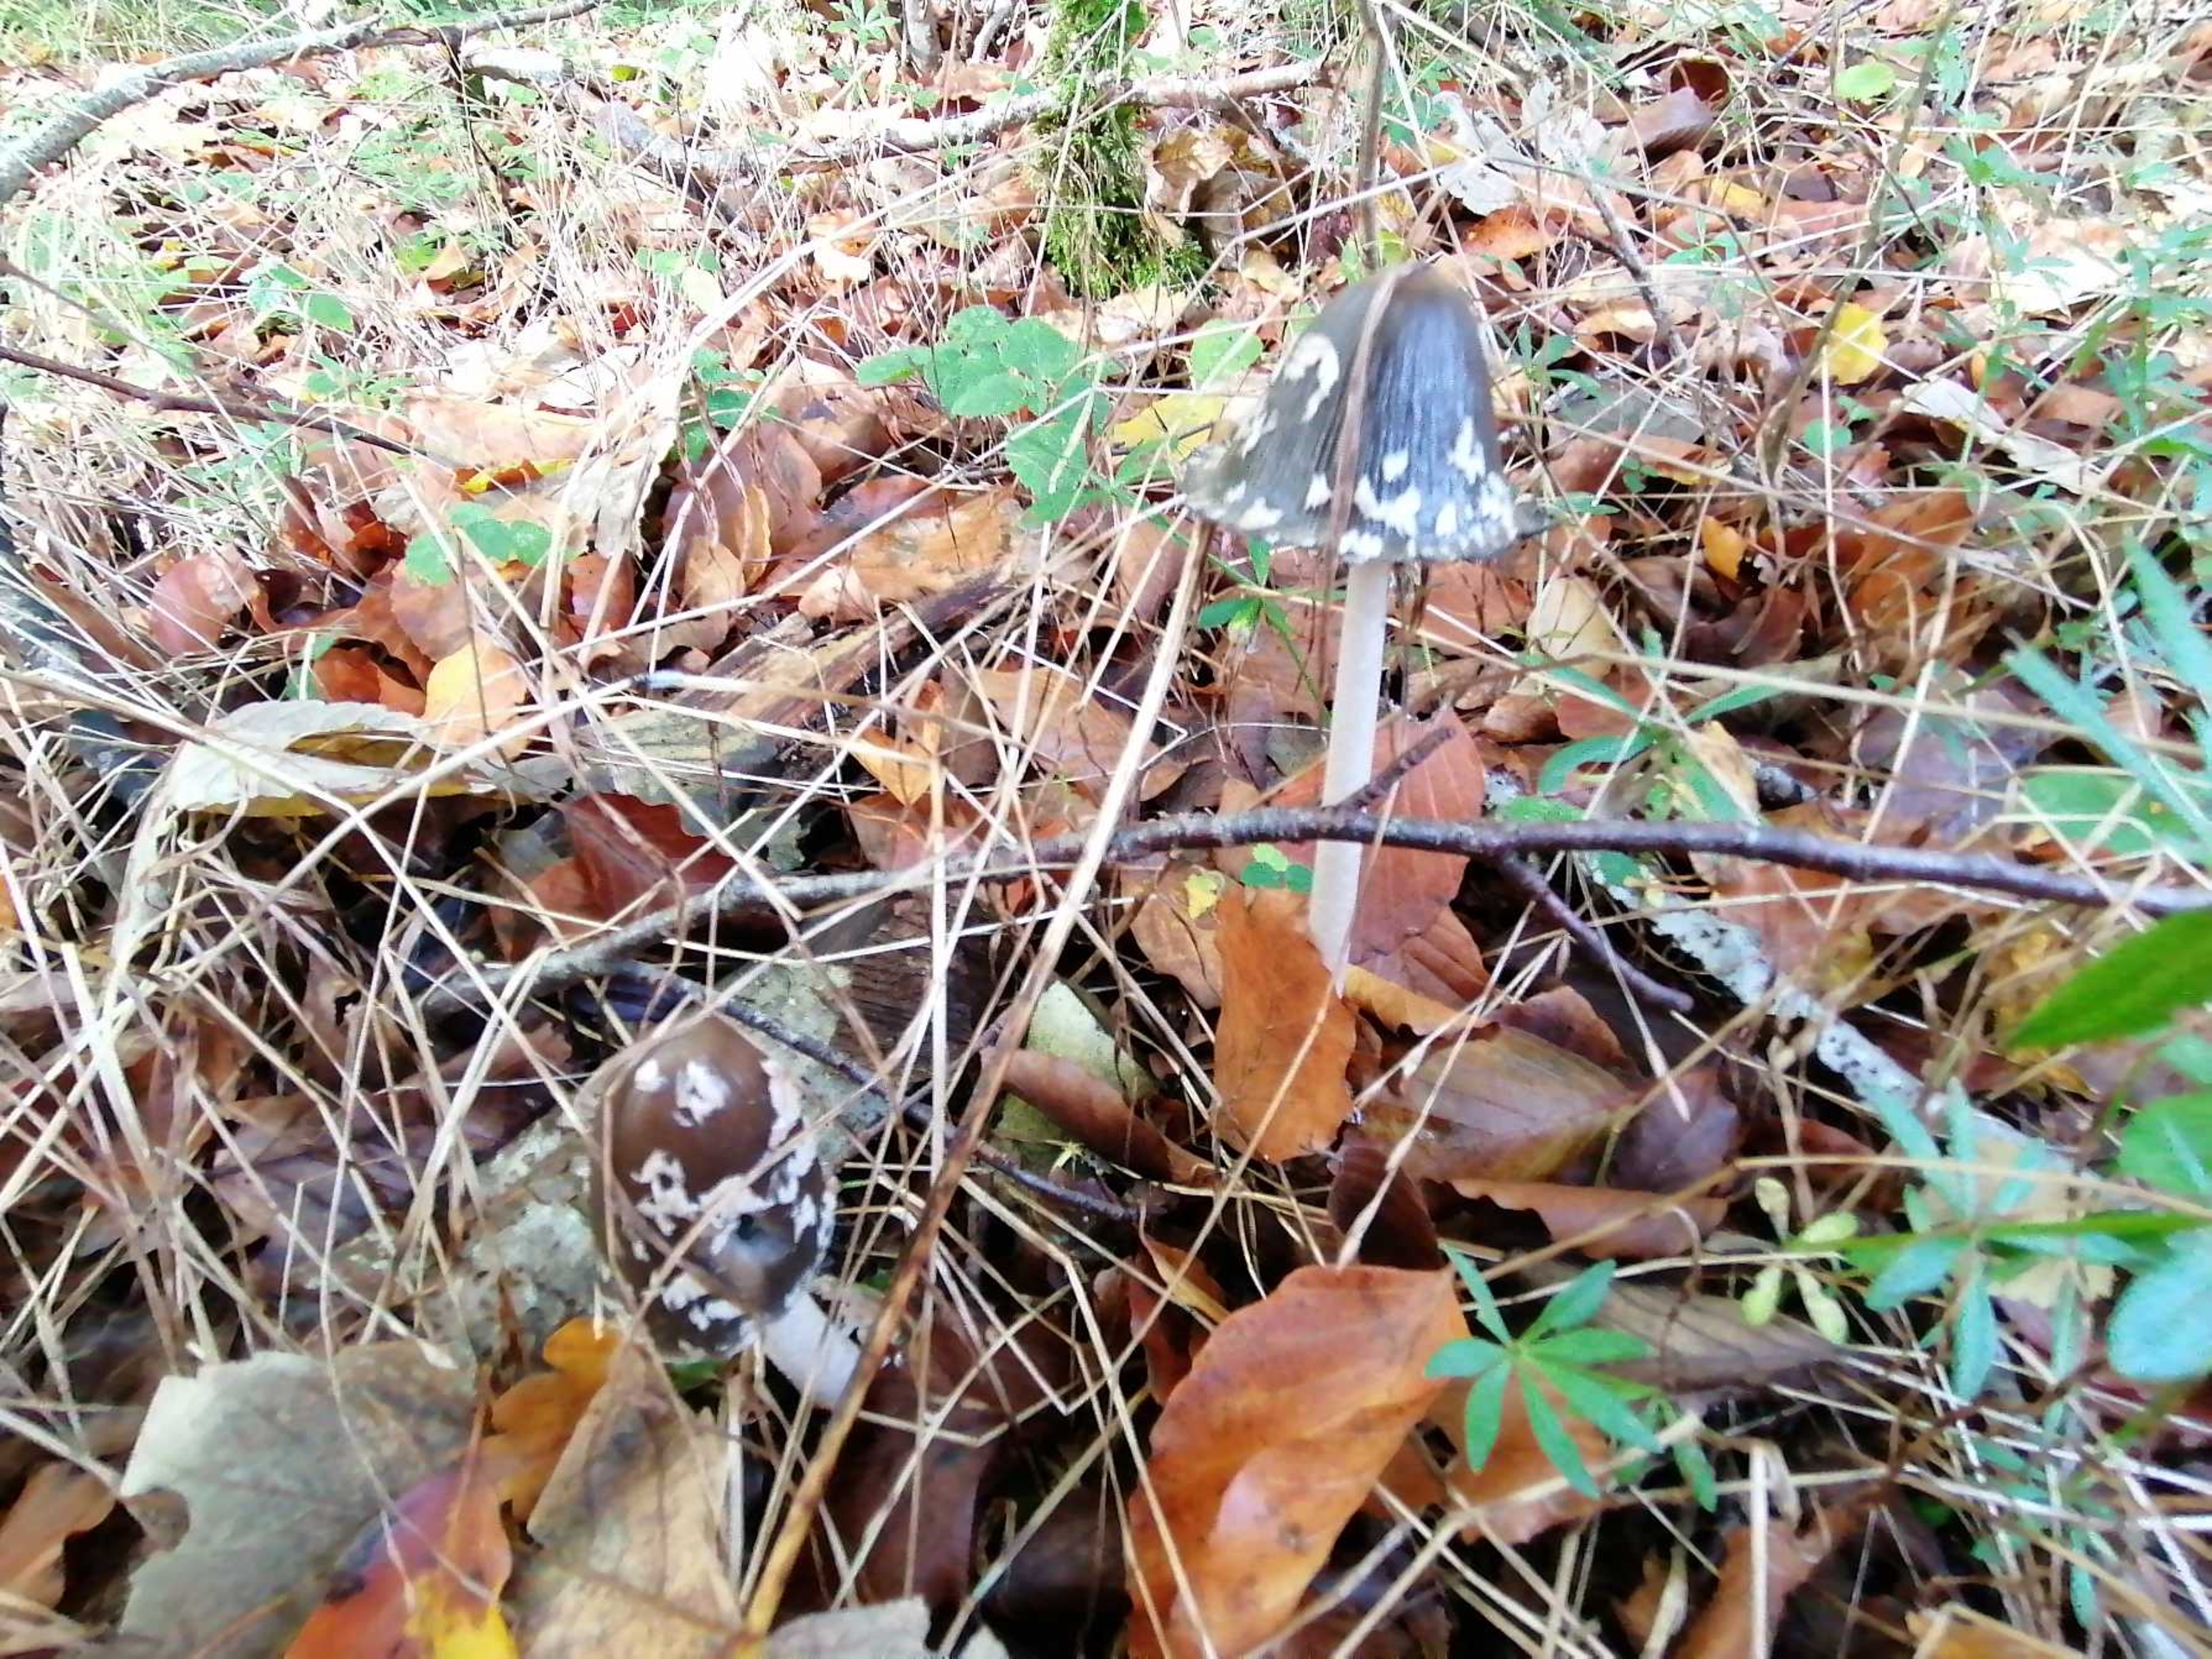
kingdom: Fungi
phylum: Basidiomycota
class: Agaricomycetes
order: Agaricales
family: Psathyrellaceae
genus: Coprinopsis
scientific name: Coprinopsis picacea
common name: Skade-blækhat
